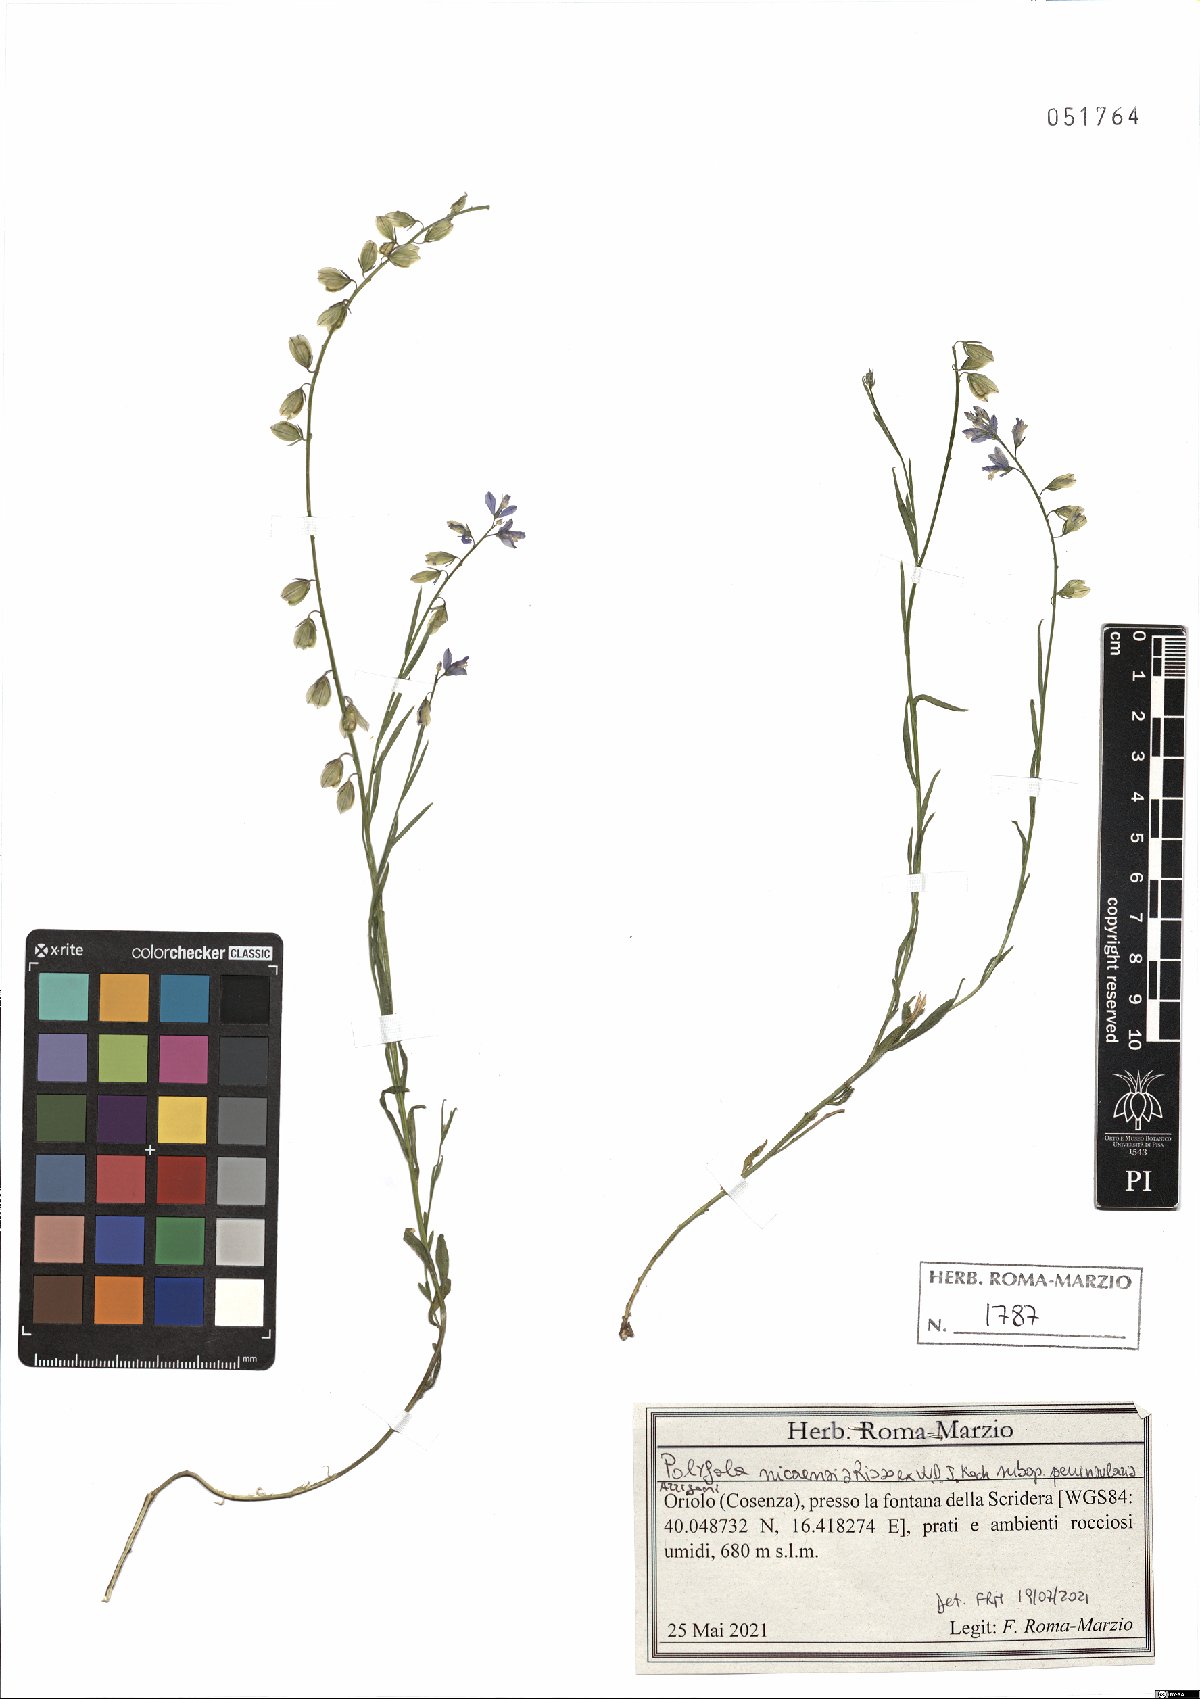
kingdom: Plantae
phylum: Tracheophyta
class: Magnoliopsida
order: Fabales
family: Polygalaceae
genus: Polygala
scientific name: Polygala nicaeensis
